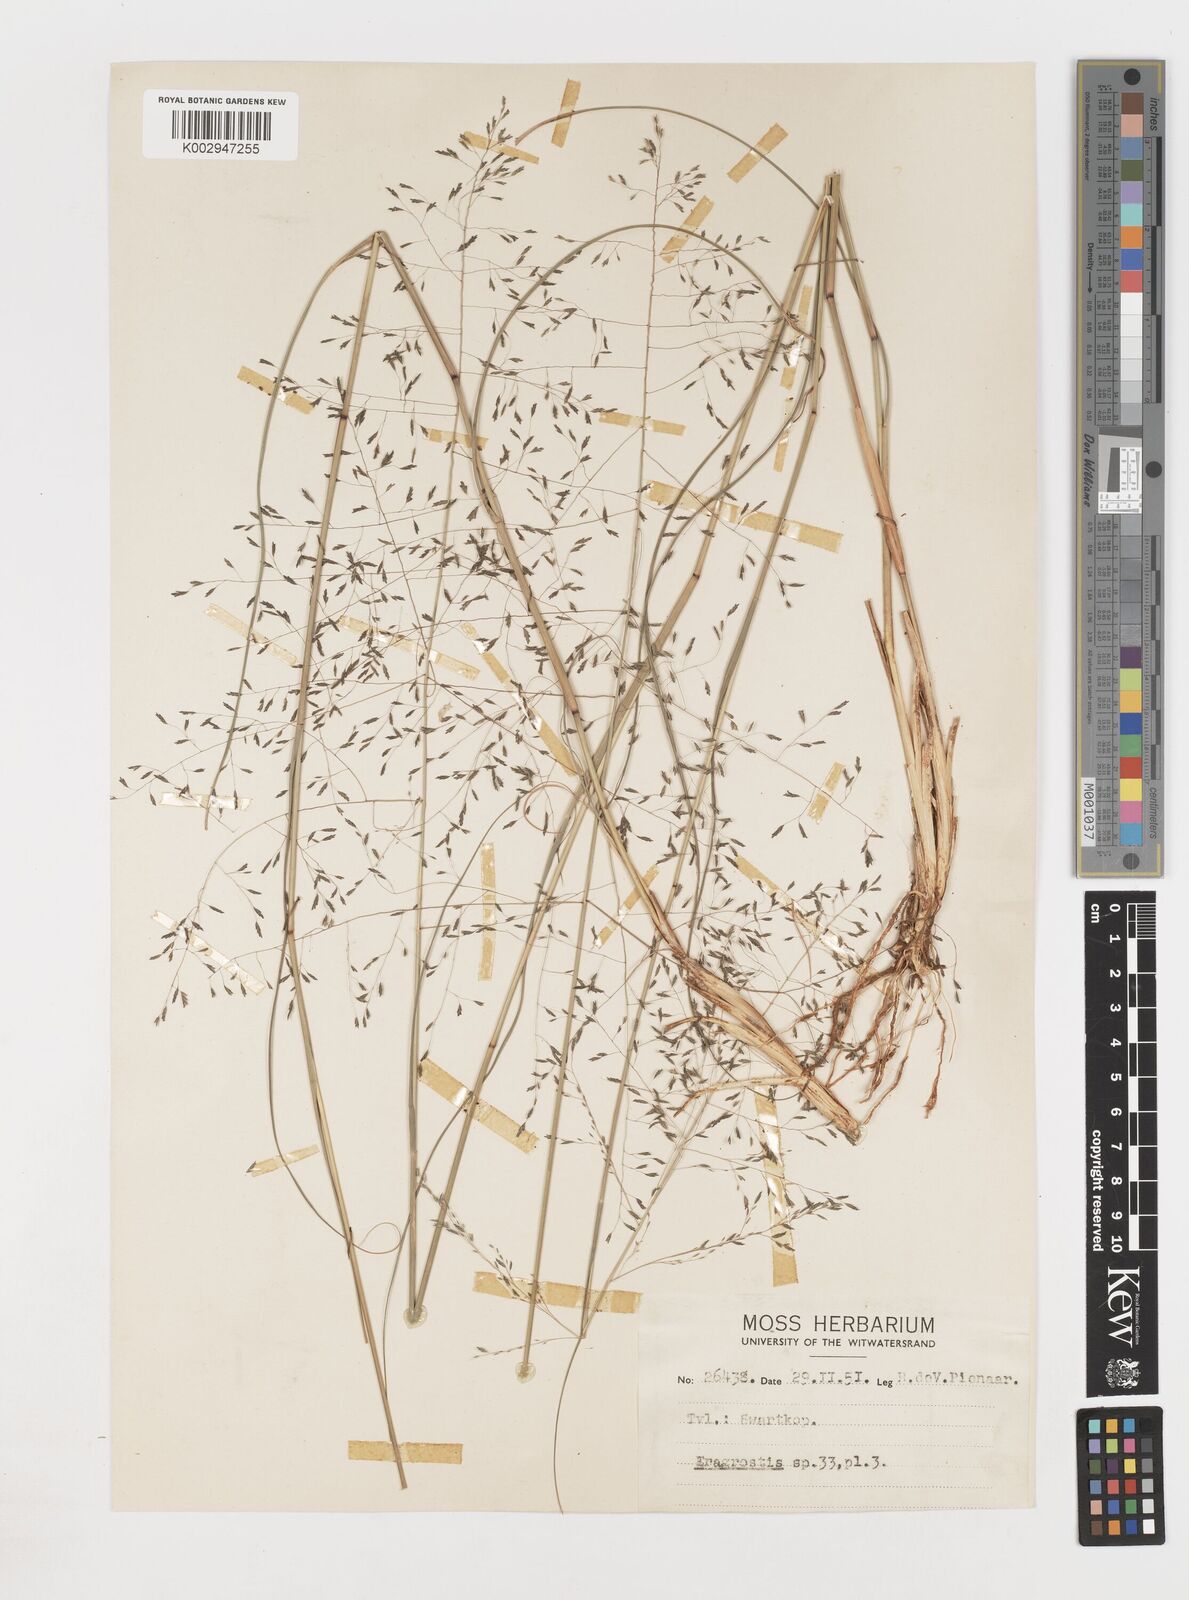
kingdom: Plantae
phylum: Tracheophyta
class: Liliopsida
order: Poales
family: Poaceae
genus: Eragrostis
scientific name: Eragrostis
